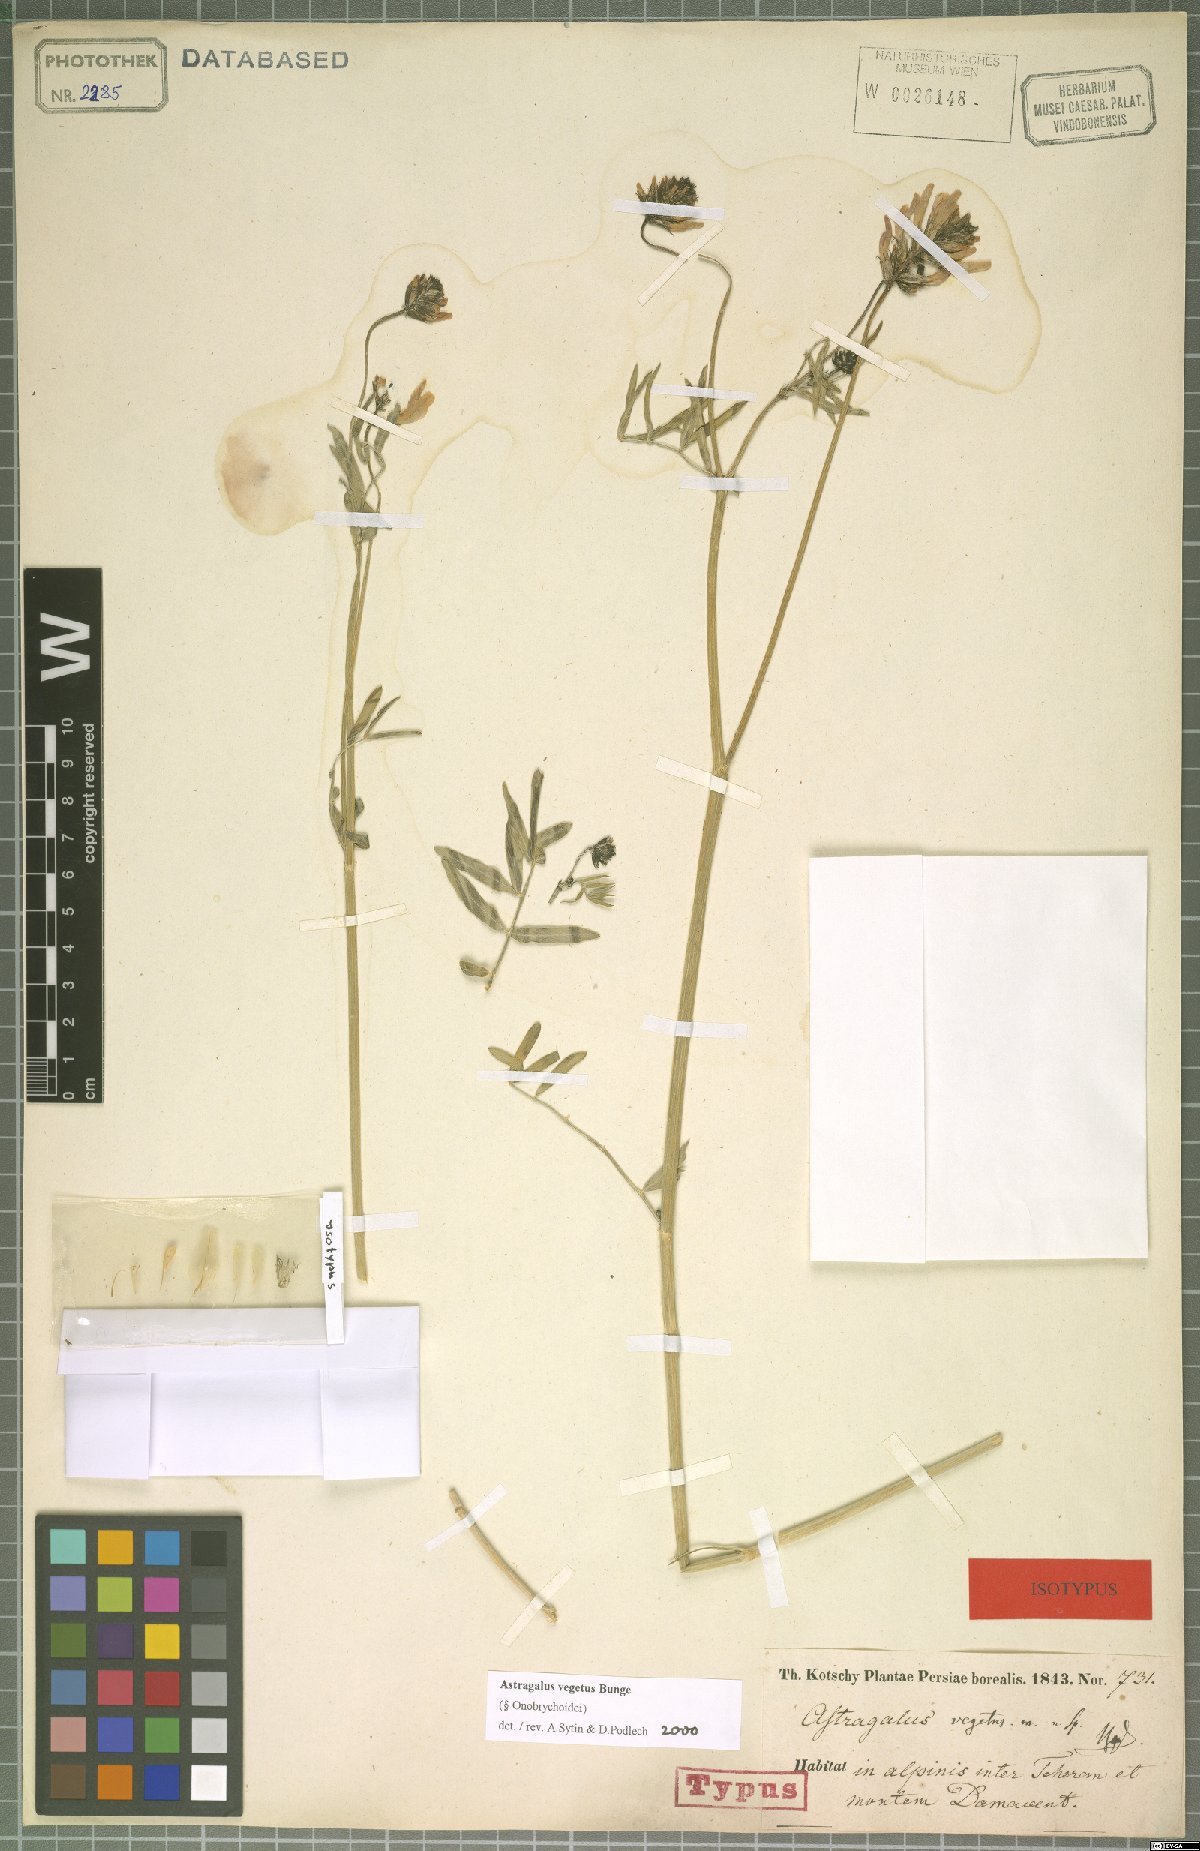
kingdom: Plantae
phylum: Tracheophyta
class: Magnoliopsida
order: Fabales
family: Fabaceae
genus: Astragalus
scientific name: Astragalus vegetus
